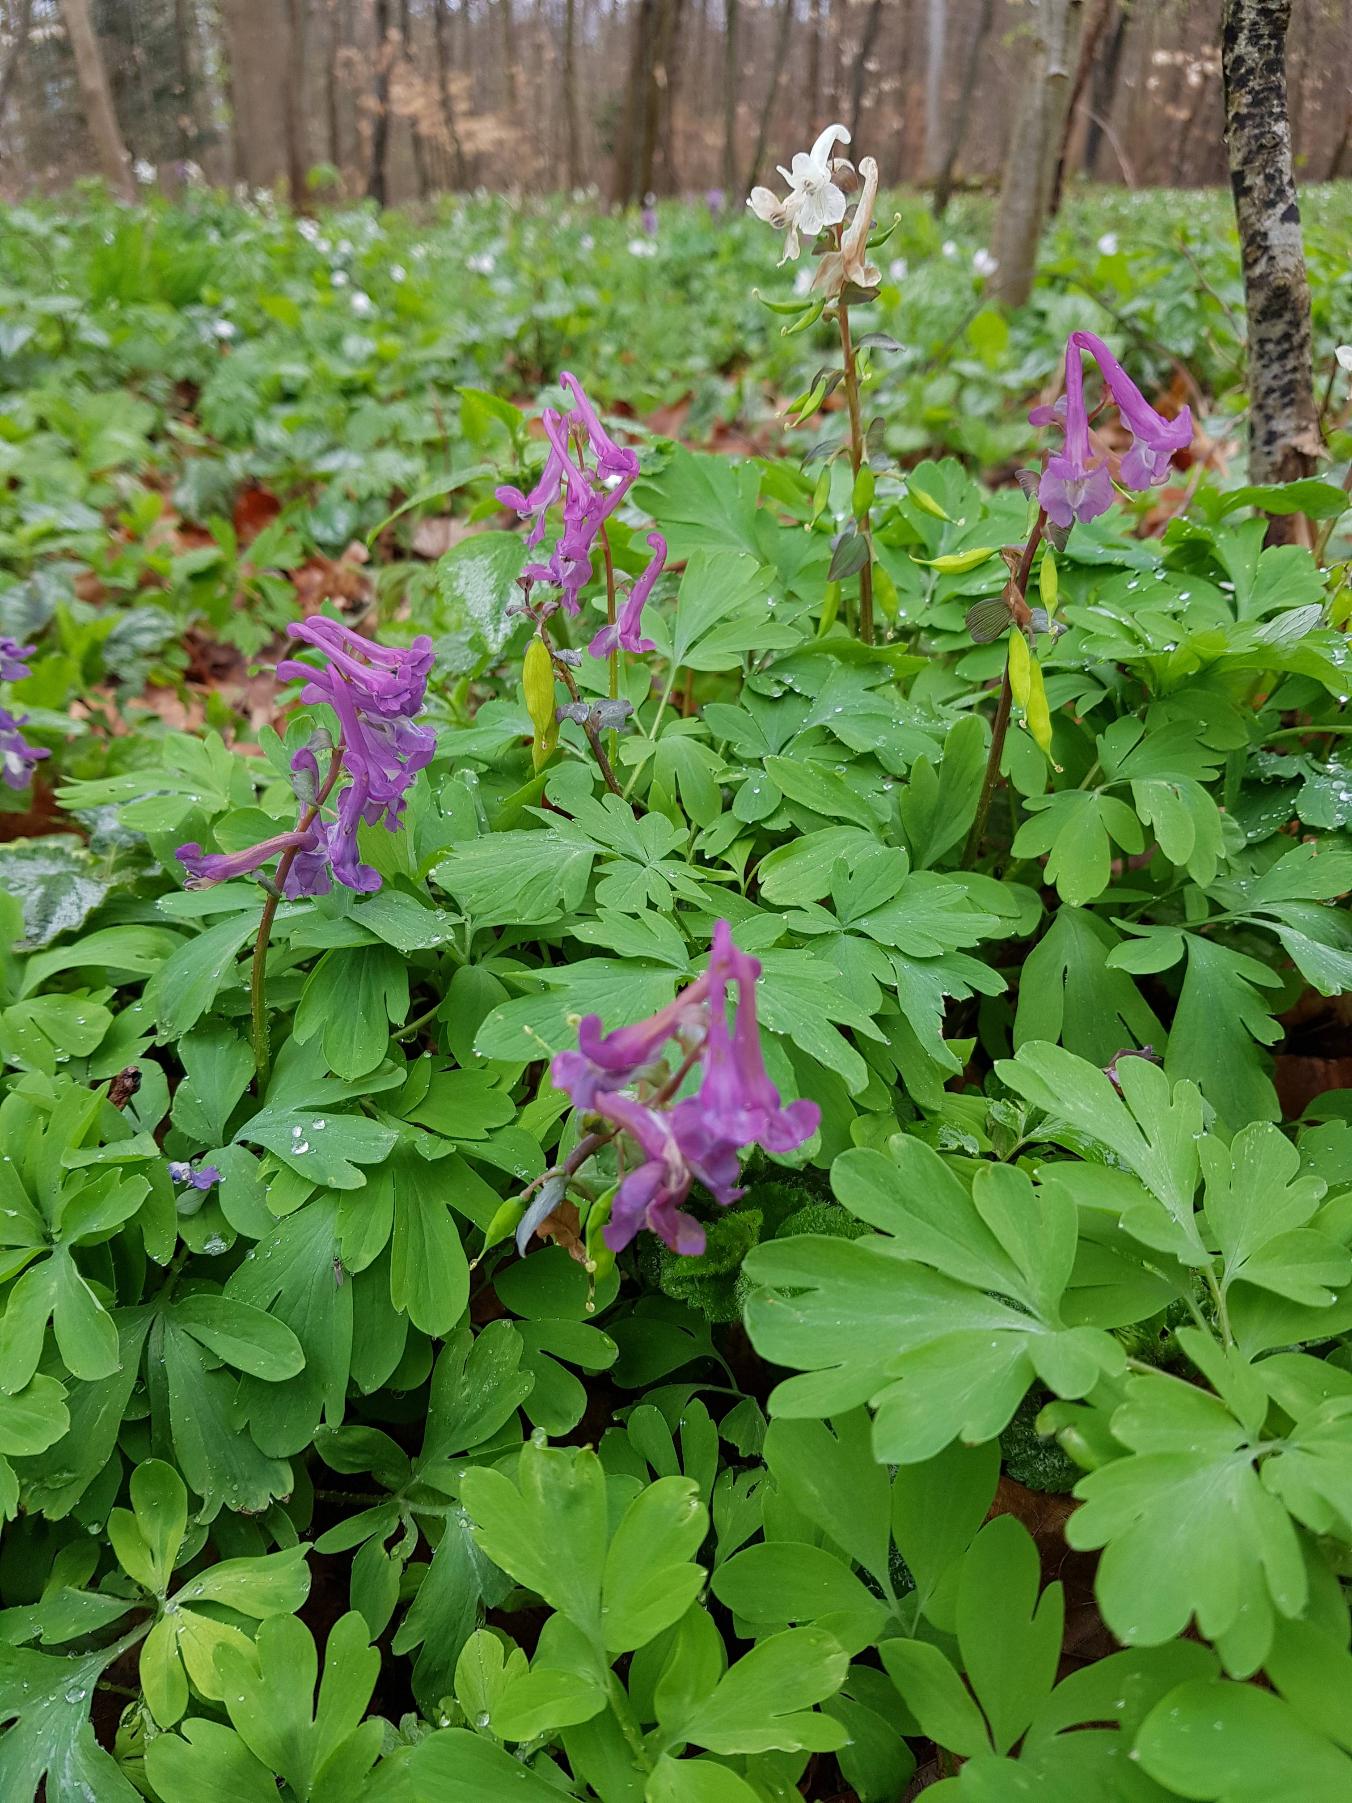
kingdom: Plantae
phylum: Tracheophyta
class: Magnoliopsida
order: Ranunculales
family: Papaveraceae
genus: Corydalis
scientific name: Corydalis cava
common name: Hulrodet lærkespore
